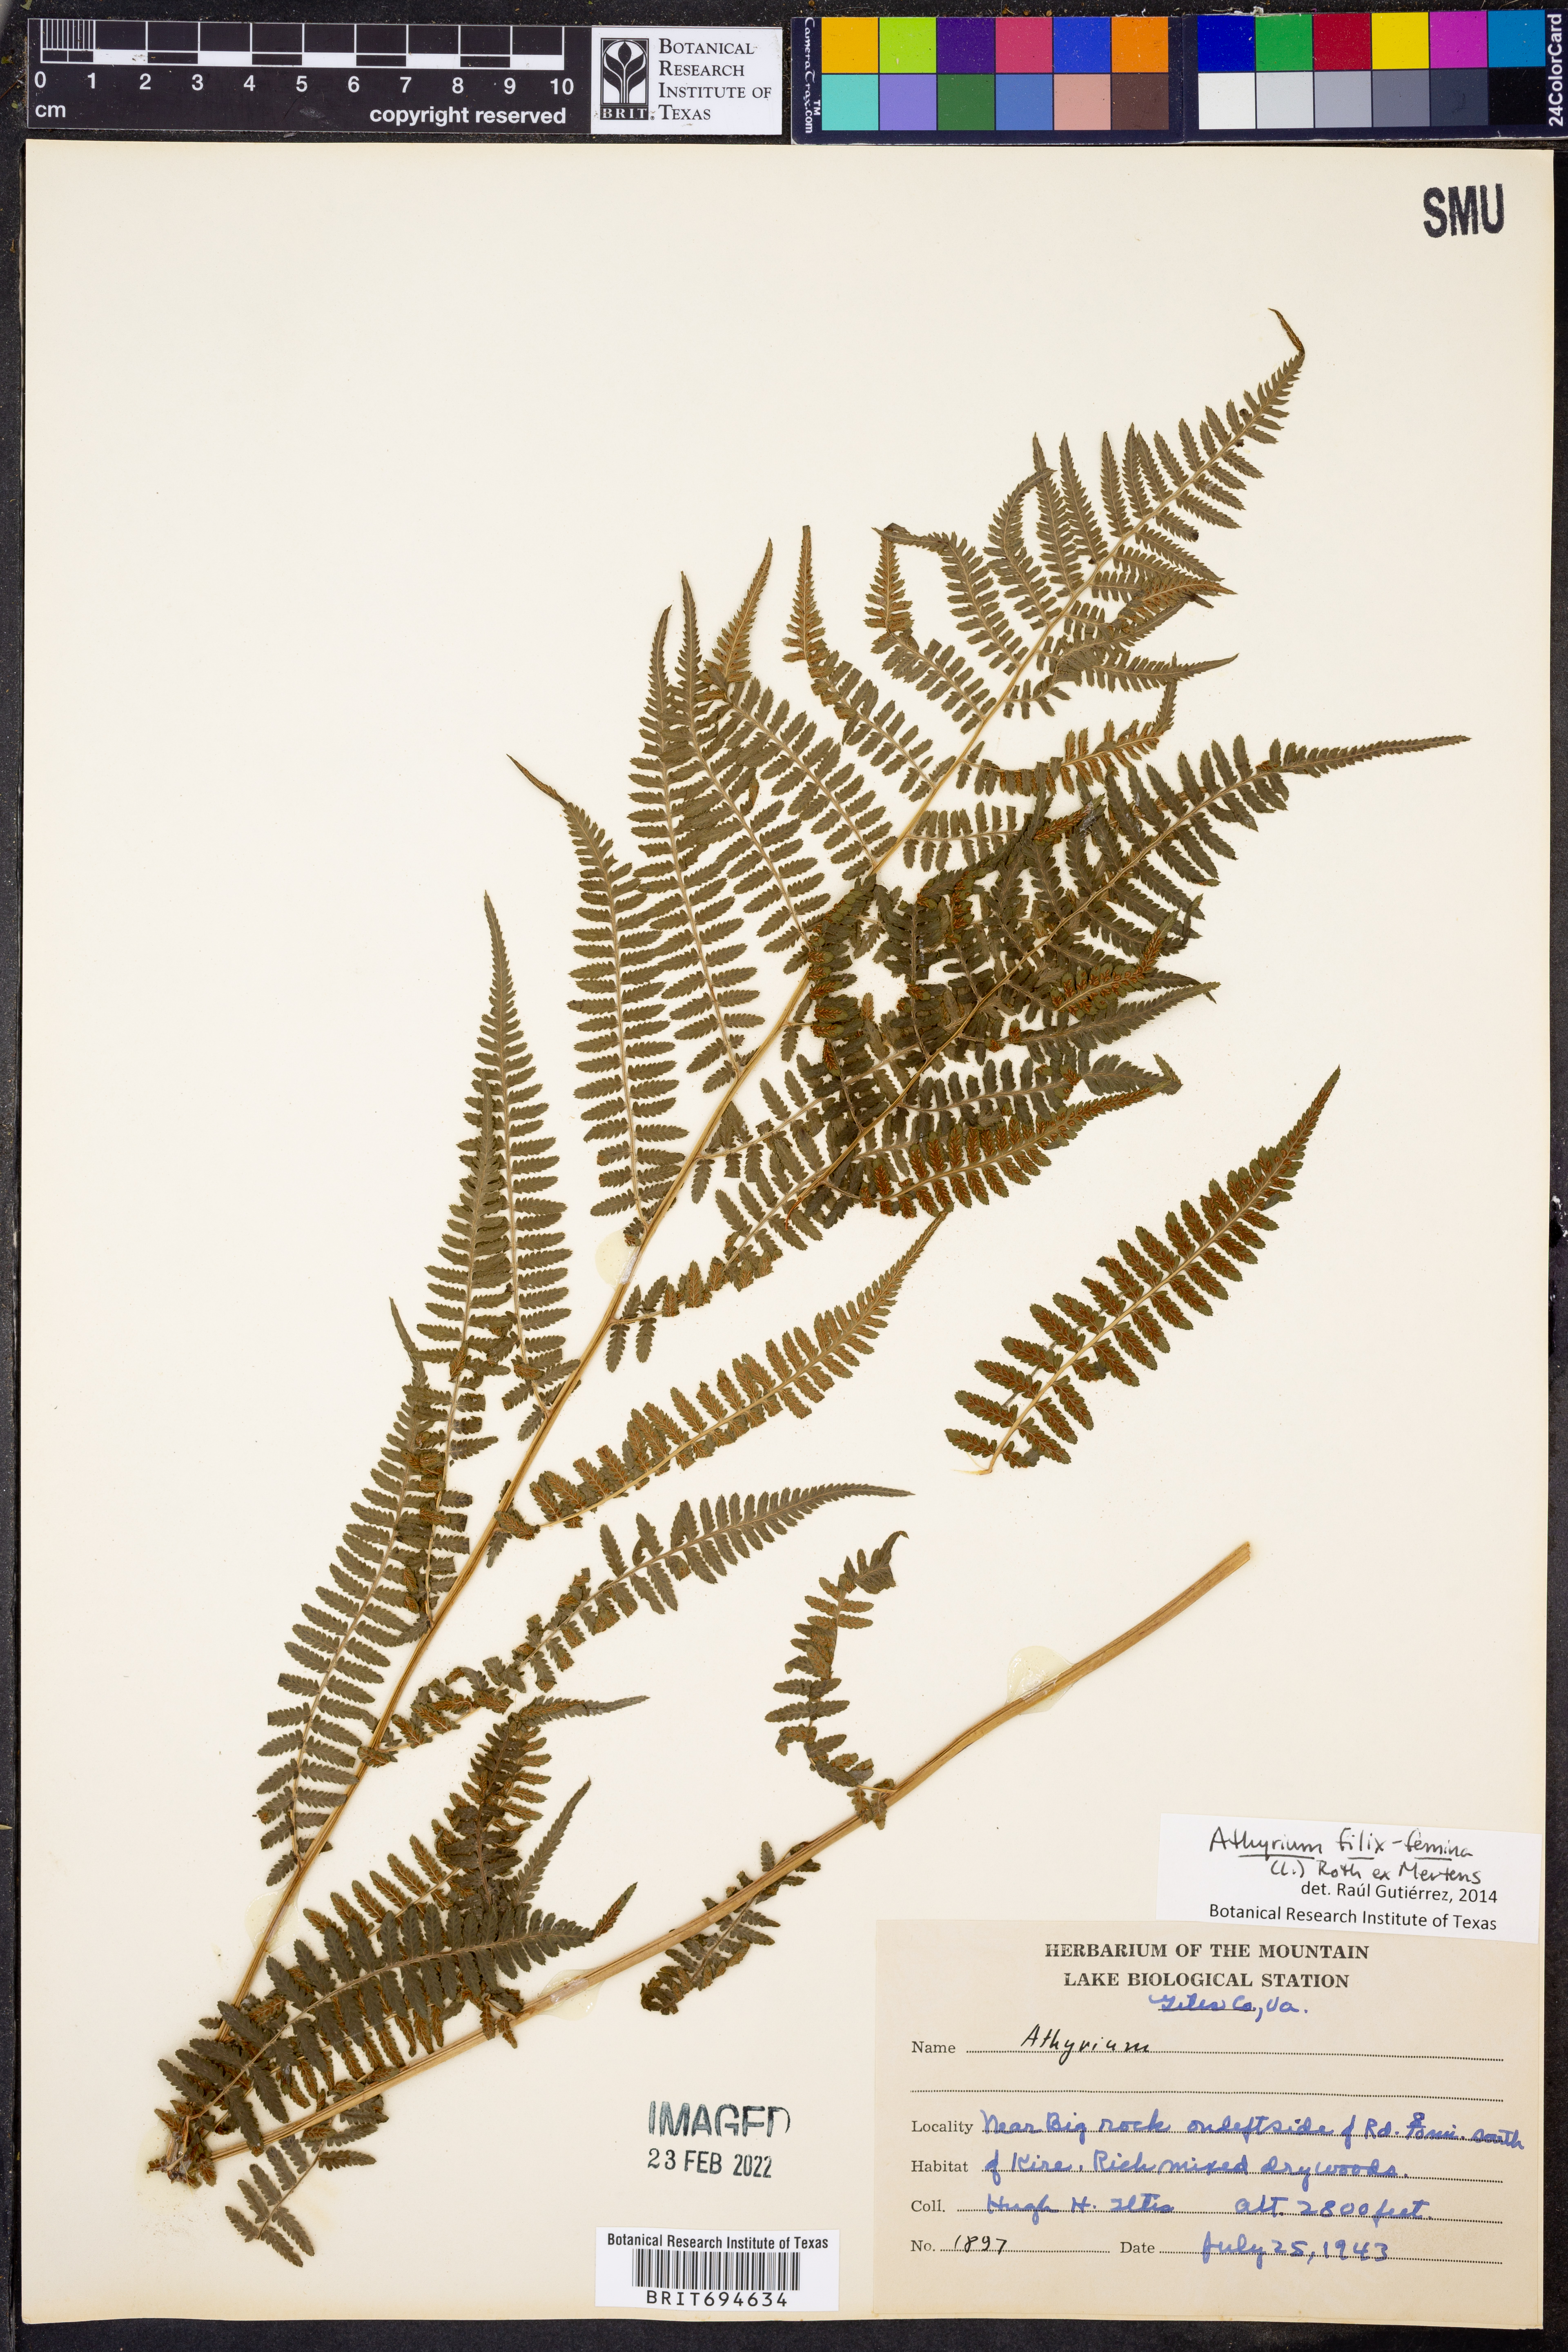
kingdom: Plantae
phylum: Tracheophyta
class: Polypodiopsida
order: Polypodiales
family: Athyriaceae
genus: Athyrium
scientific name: Athyrium filix-femina
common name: Lady fern
